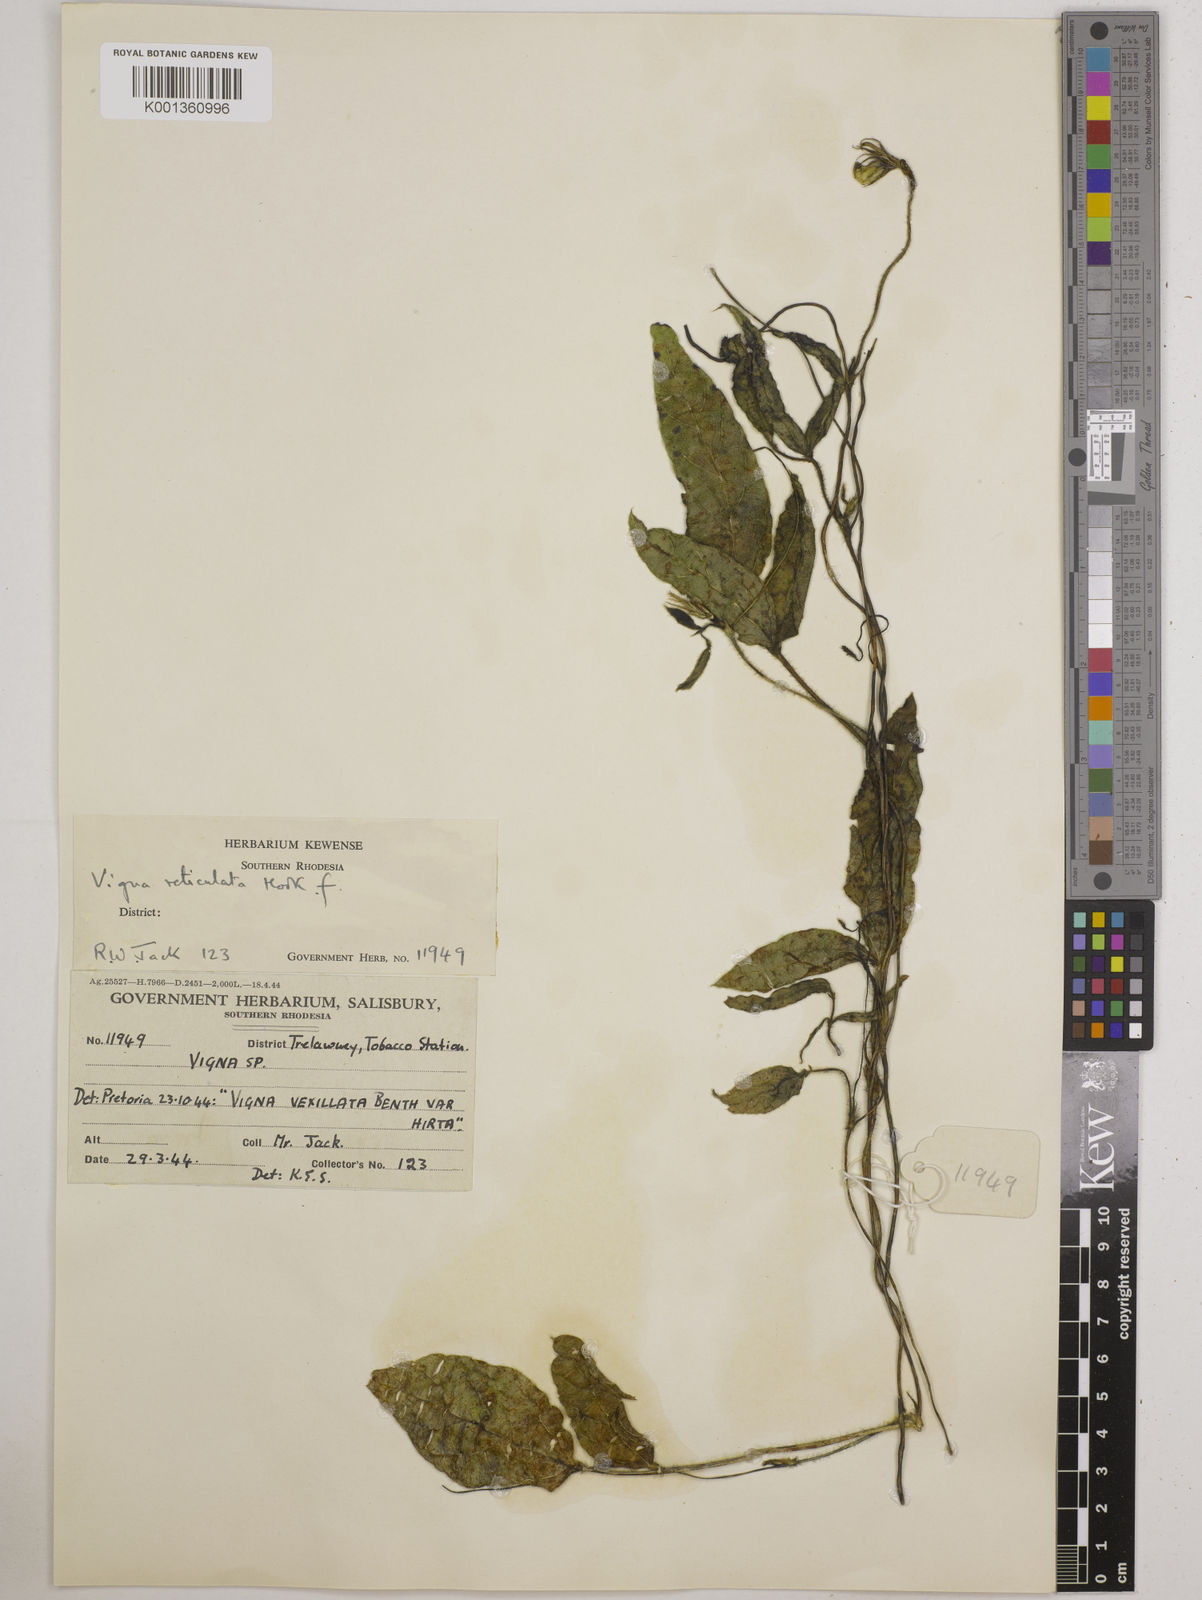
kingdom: Plantae
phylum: Tracheophyta
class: Magnoliopsida
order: Fabales
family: Fabaceae
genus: Vigna
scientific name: Vigna reticulata
